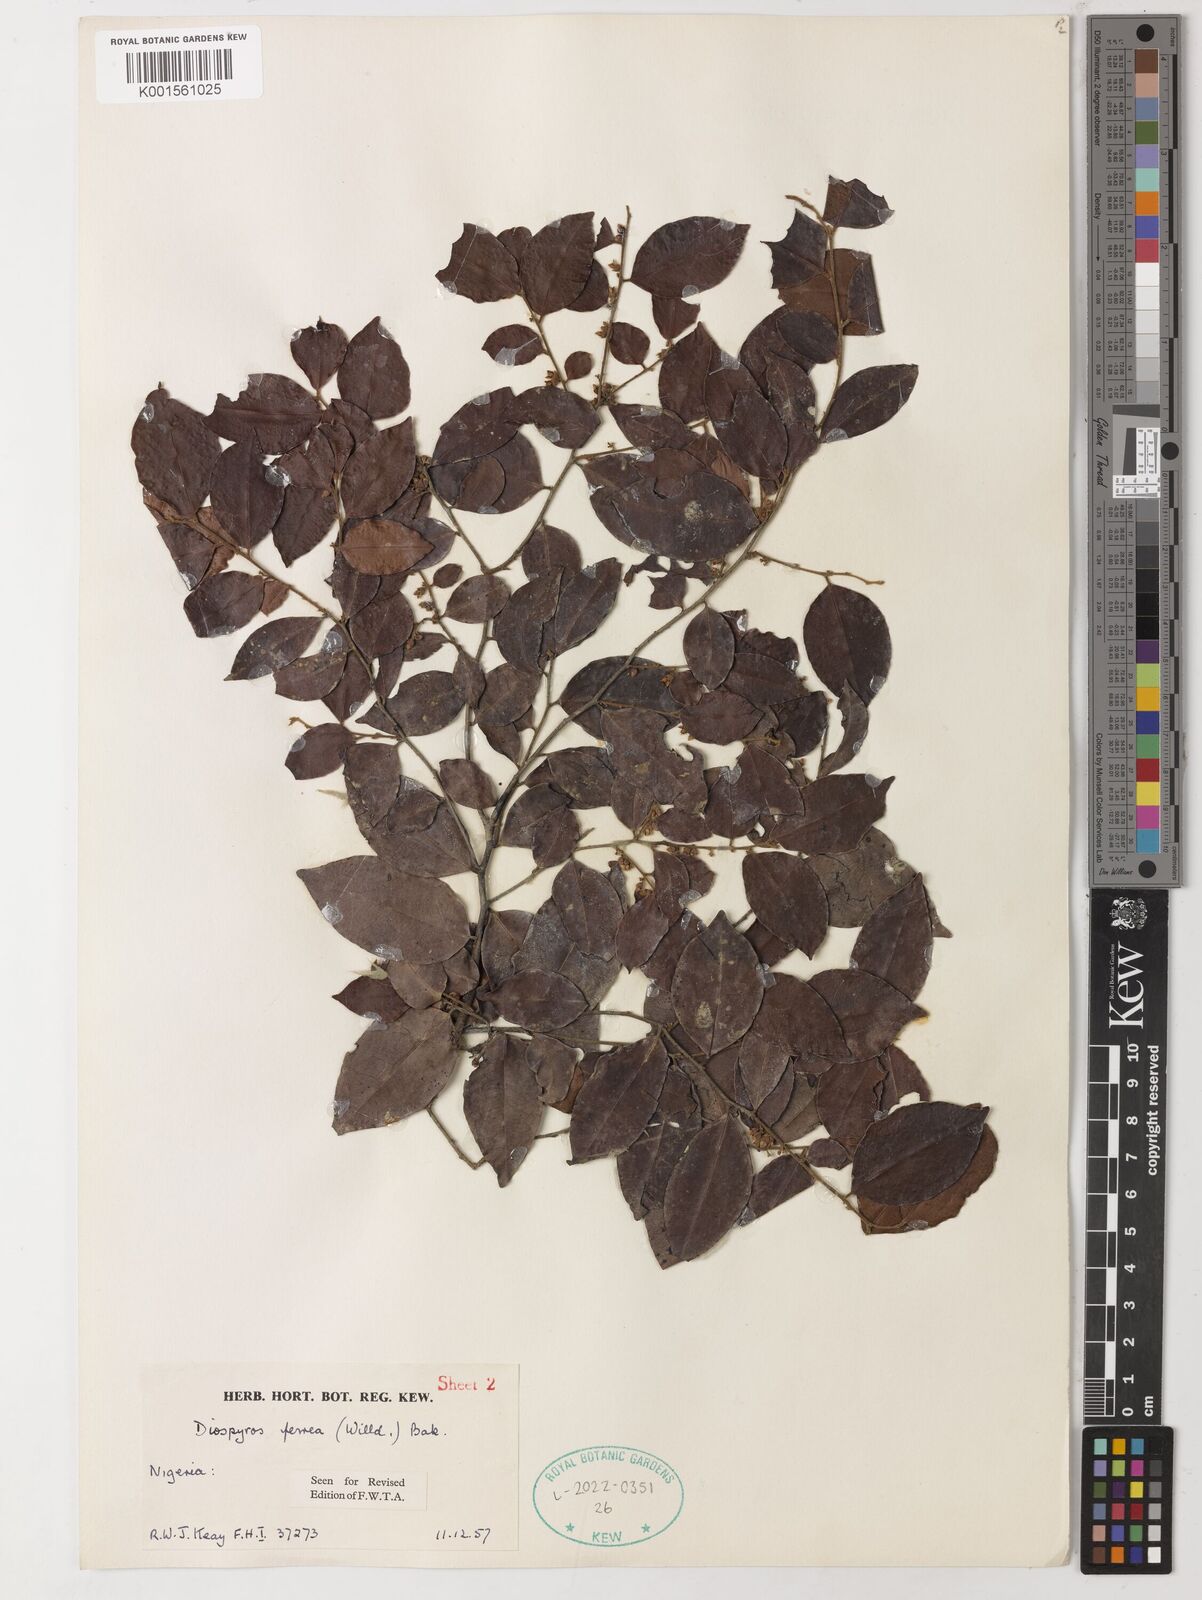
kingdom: Plantae
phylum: Tracheophyta
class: Magnoliopsida
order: Ericales
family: Ebenaceae
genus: Diospyros
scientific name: Diospyros ferrea
